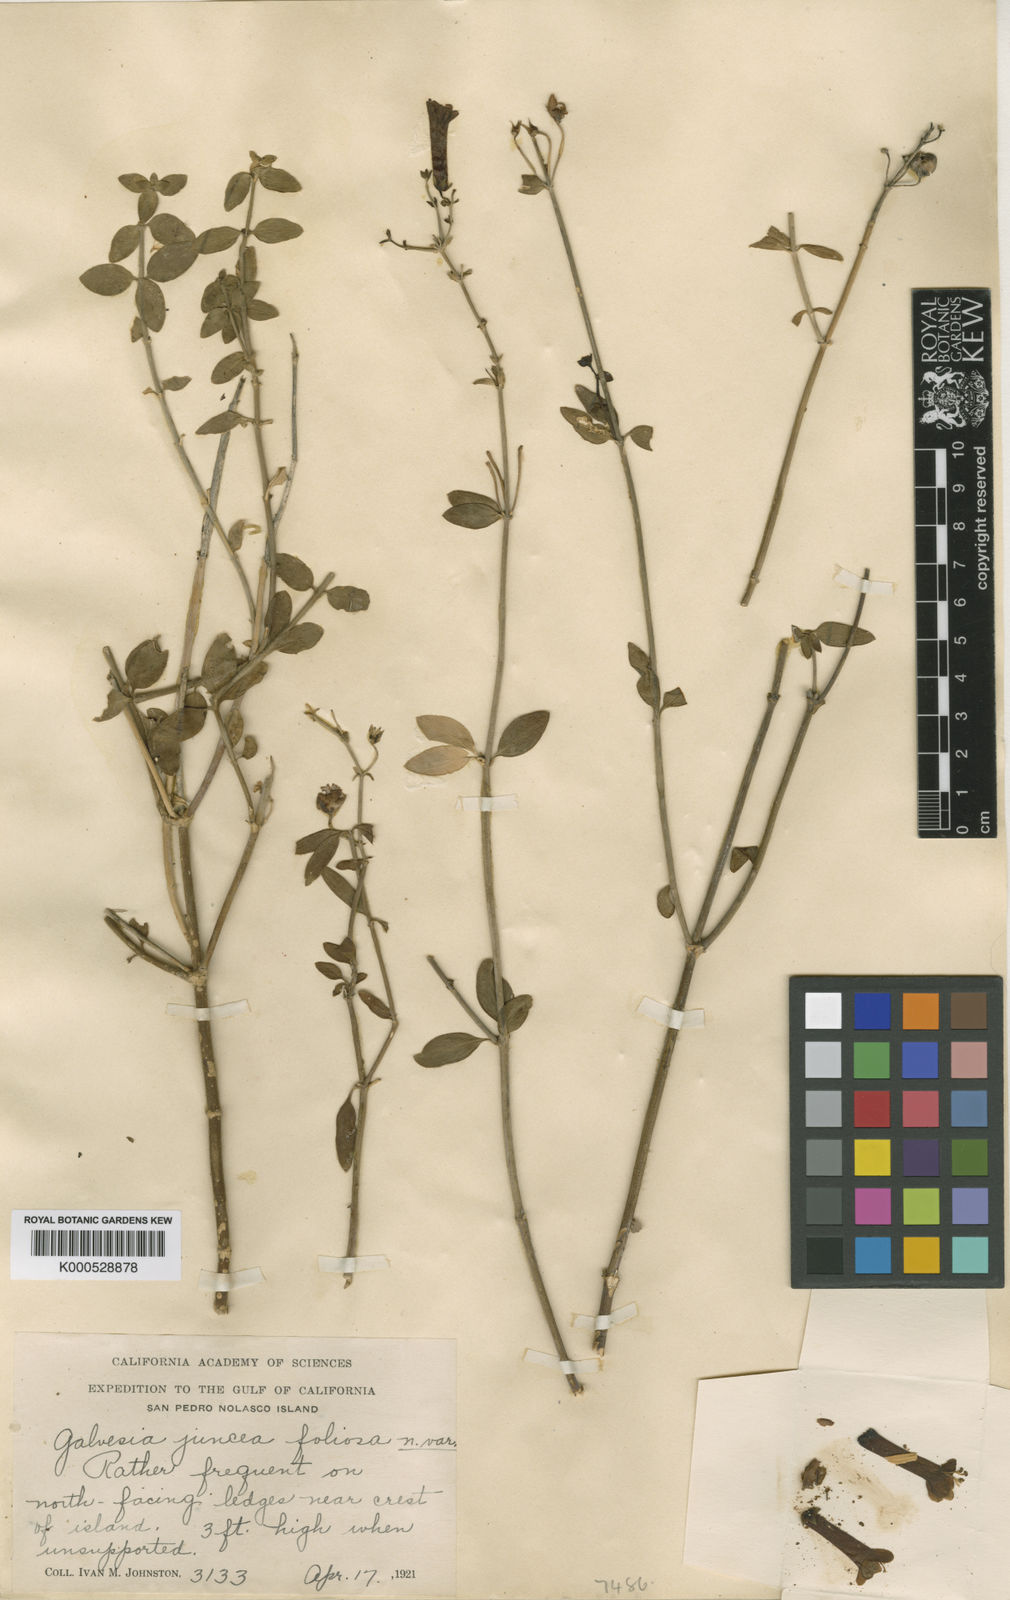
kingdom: Plantae
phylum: Tracheophyta
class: Magnoliopsida
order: Lamiales
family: Plantaginaceae
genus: Galvezia
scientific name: Galvezia
